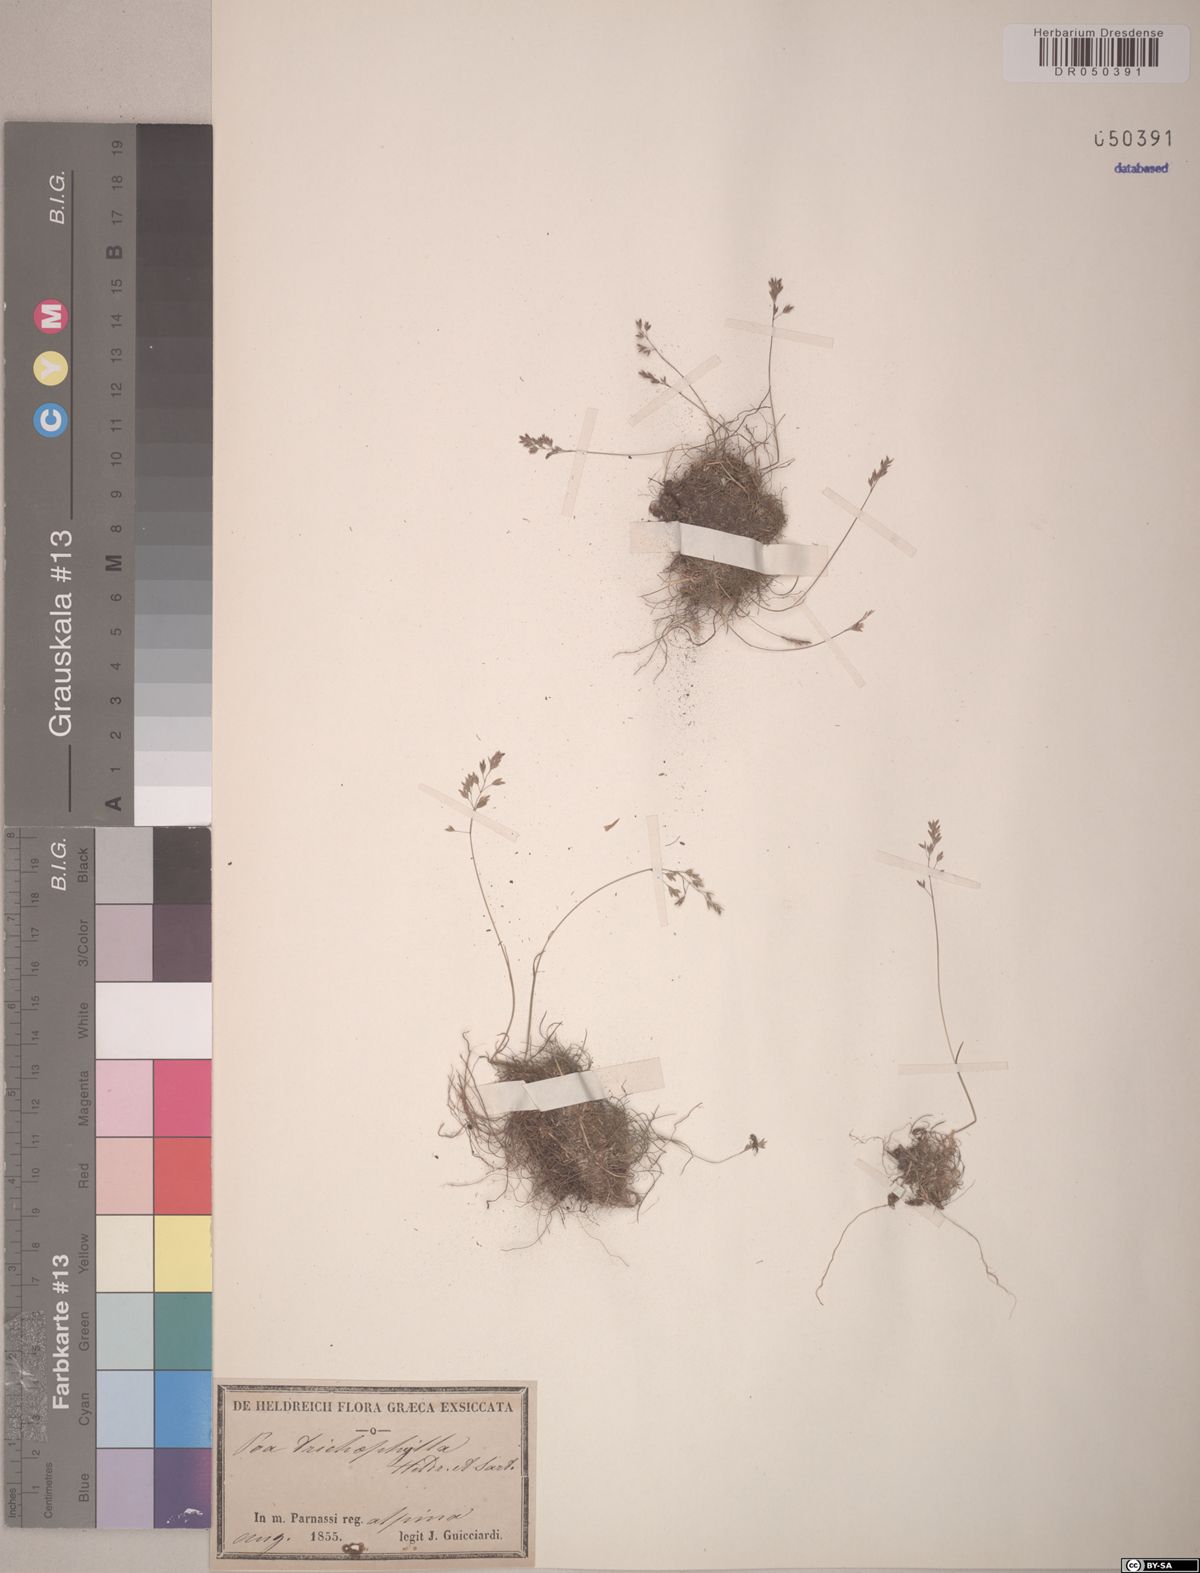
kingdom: Plantae
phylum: Tracheophyta
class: Liliopsida
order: Poales
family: Poaceae
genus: Poa
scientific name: Poa trichophylla
